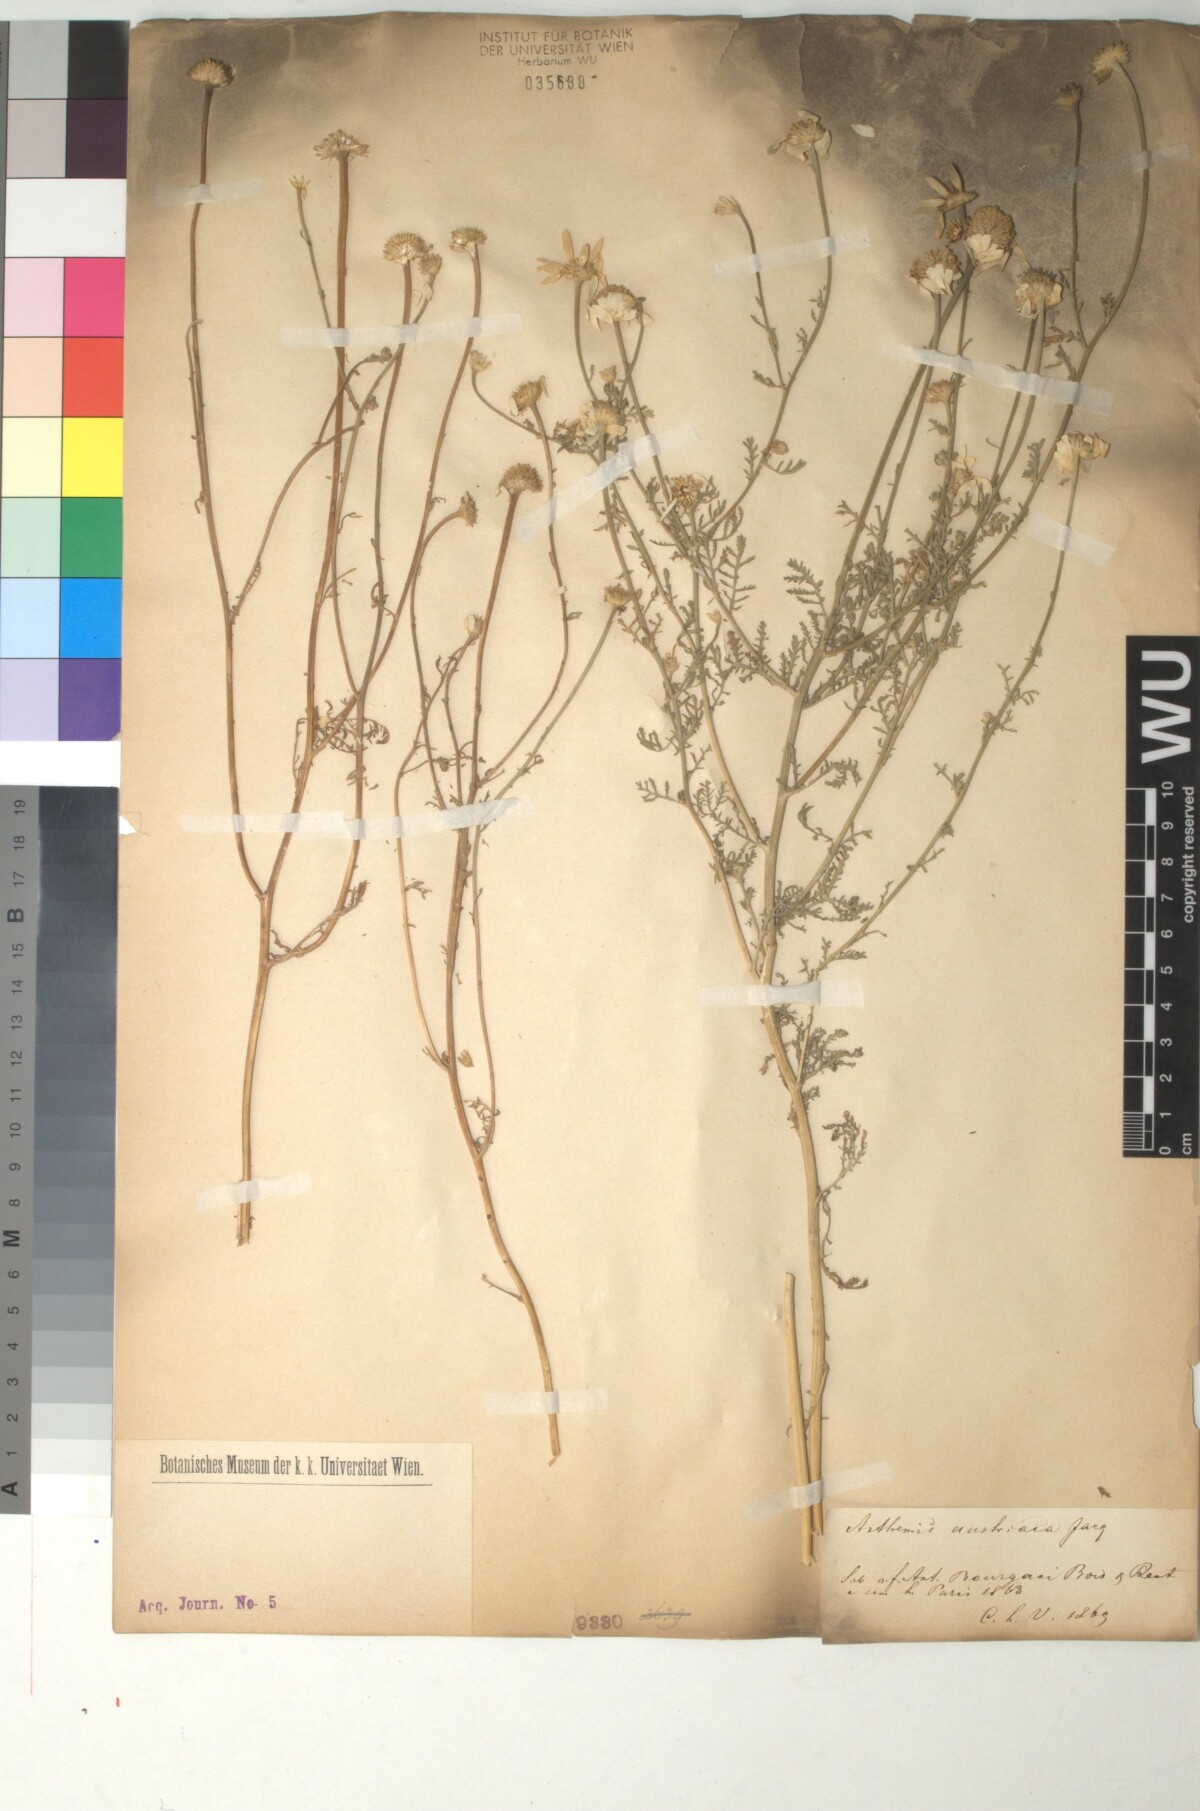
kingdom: Plantae
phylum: Tracheophyta
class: Magnoliopsida
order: Asterales
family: Asteraceae
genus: Cota
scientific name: Cota altissima
